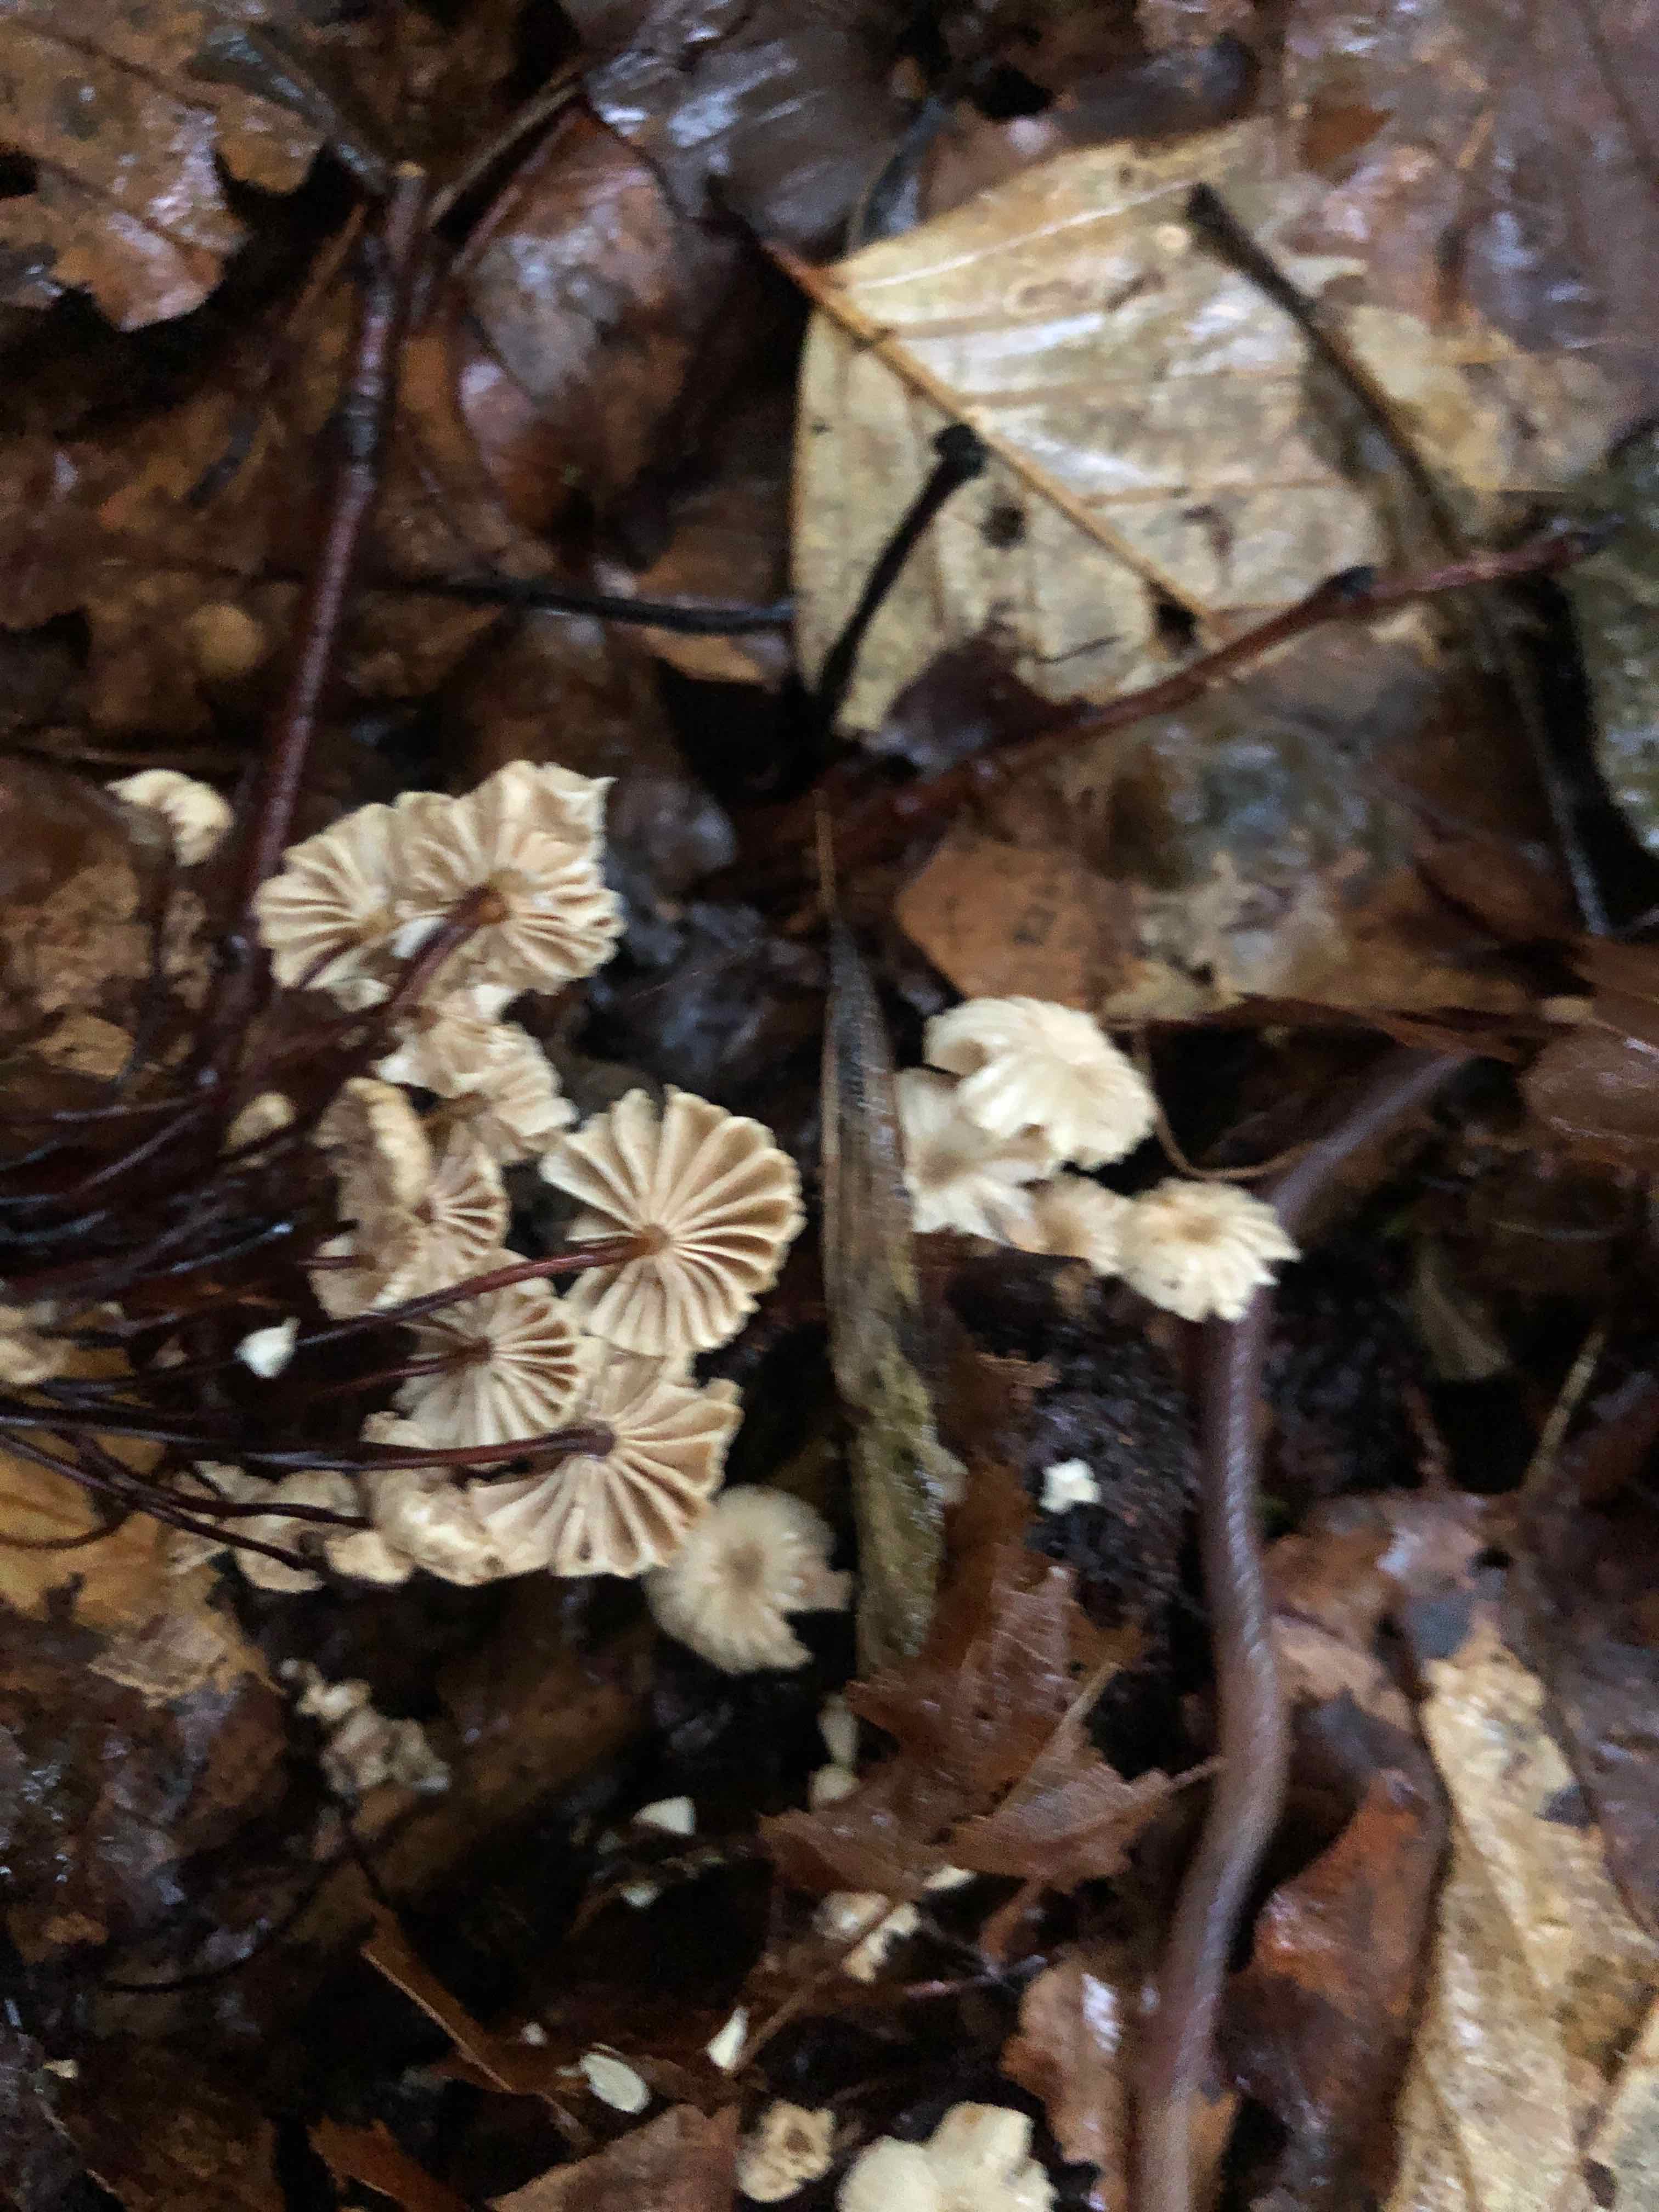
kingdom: Fungi
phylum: Basidiomycota
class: Agaricomycetes
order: Agaricales
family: Marasmiaceae
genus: Marasmius
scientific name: Marasmius rotula
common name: hjul-bruskhat
